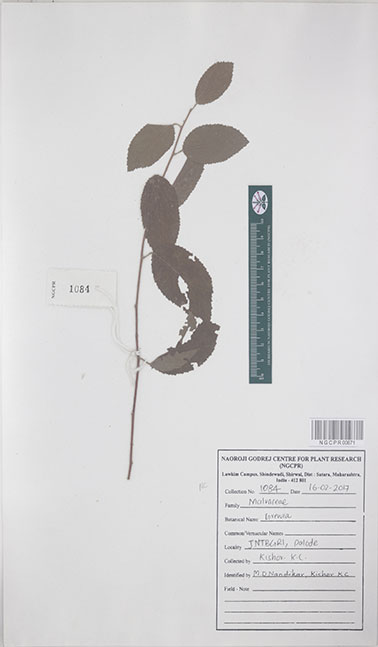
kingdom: Plantae
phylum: Tracheophyta
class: Magnoliopsida
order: Malvales
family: Malvaceae
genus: Grewia
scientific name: Grewia
